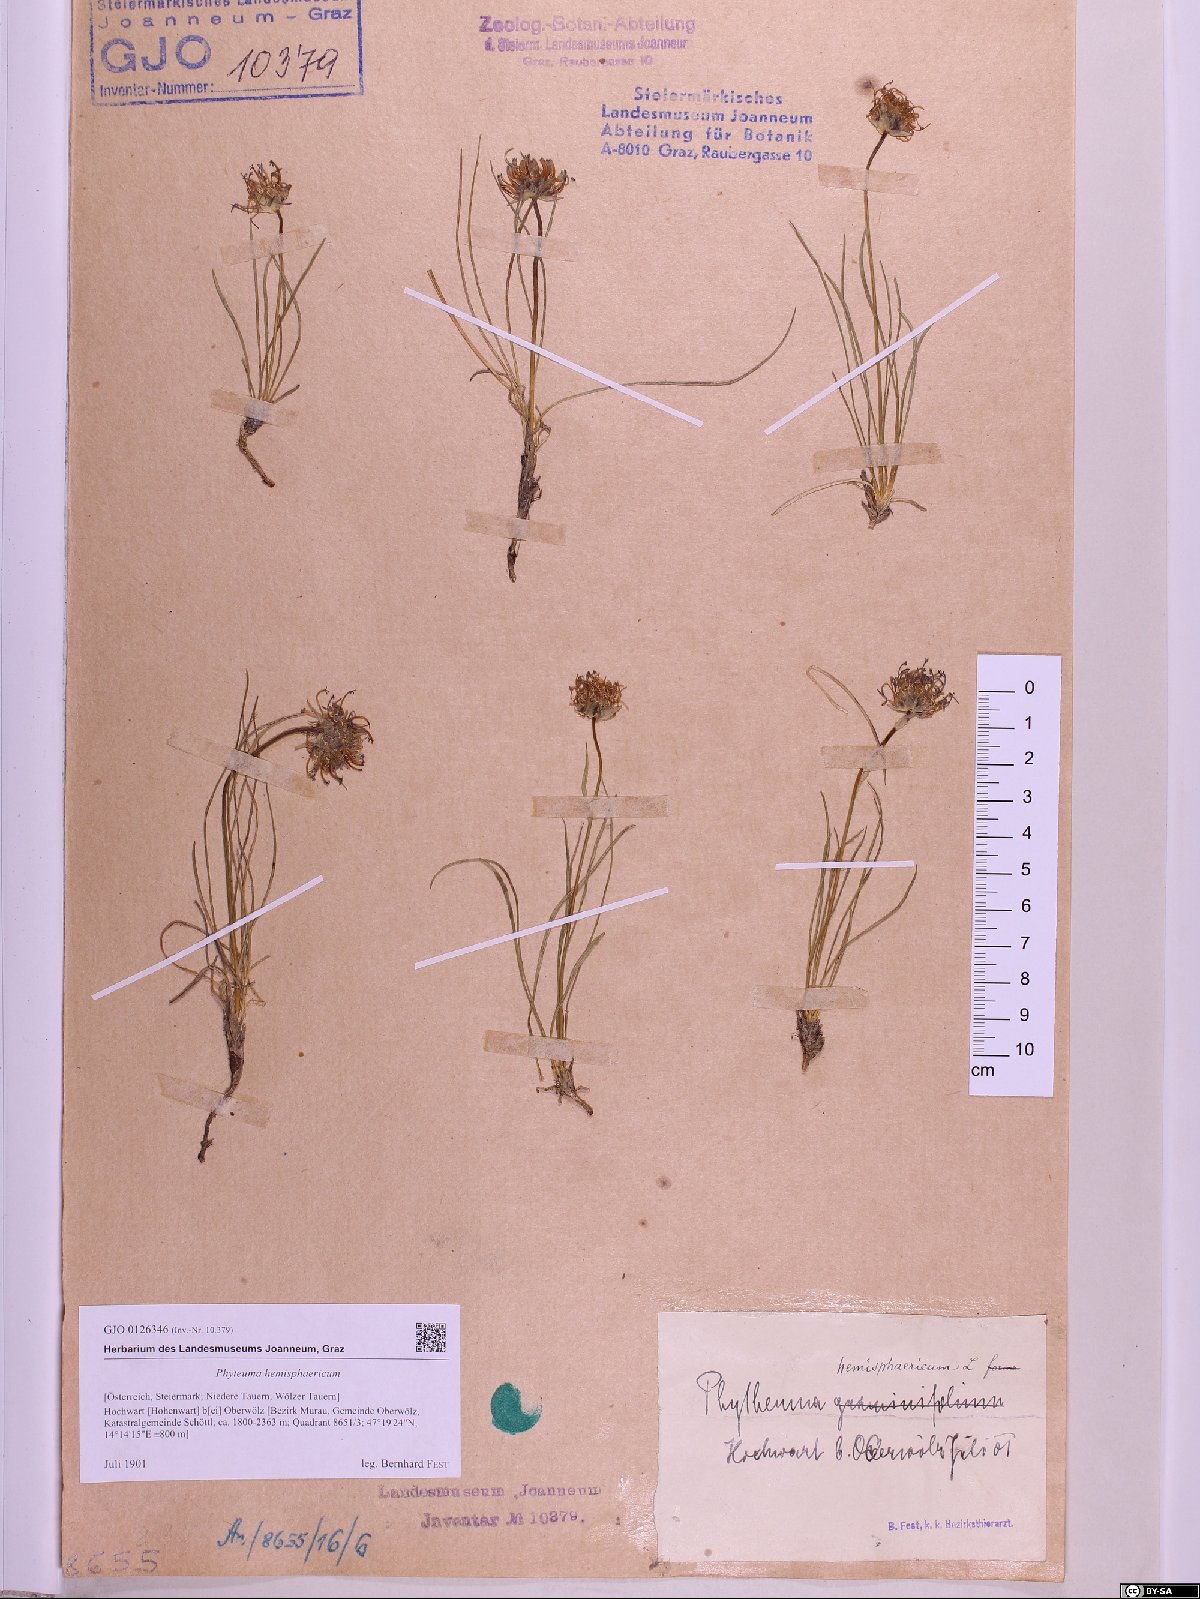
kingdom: Plantae
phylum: Tracheophyta
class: Magnoliopsida
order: Asterales
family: Campanulaceae
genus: Phyteuma
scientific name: Phyteuma hemisphaericum
